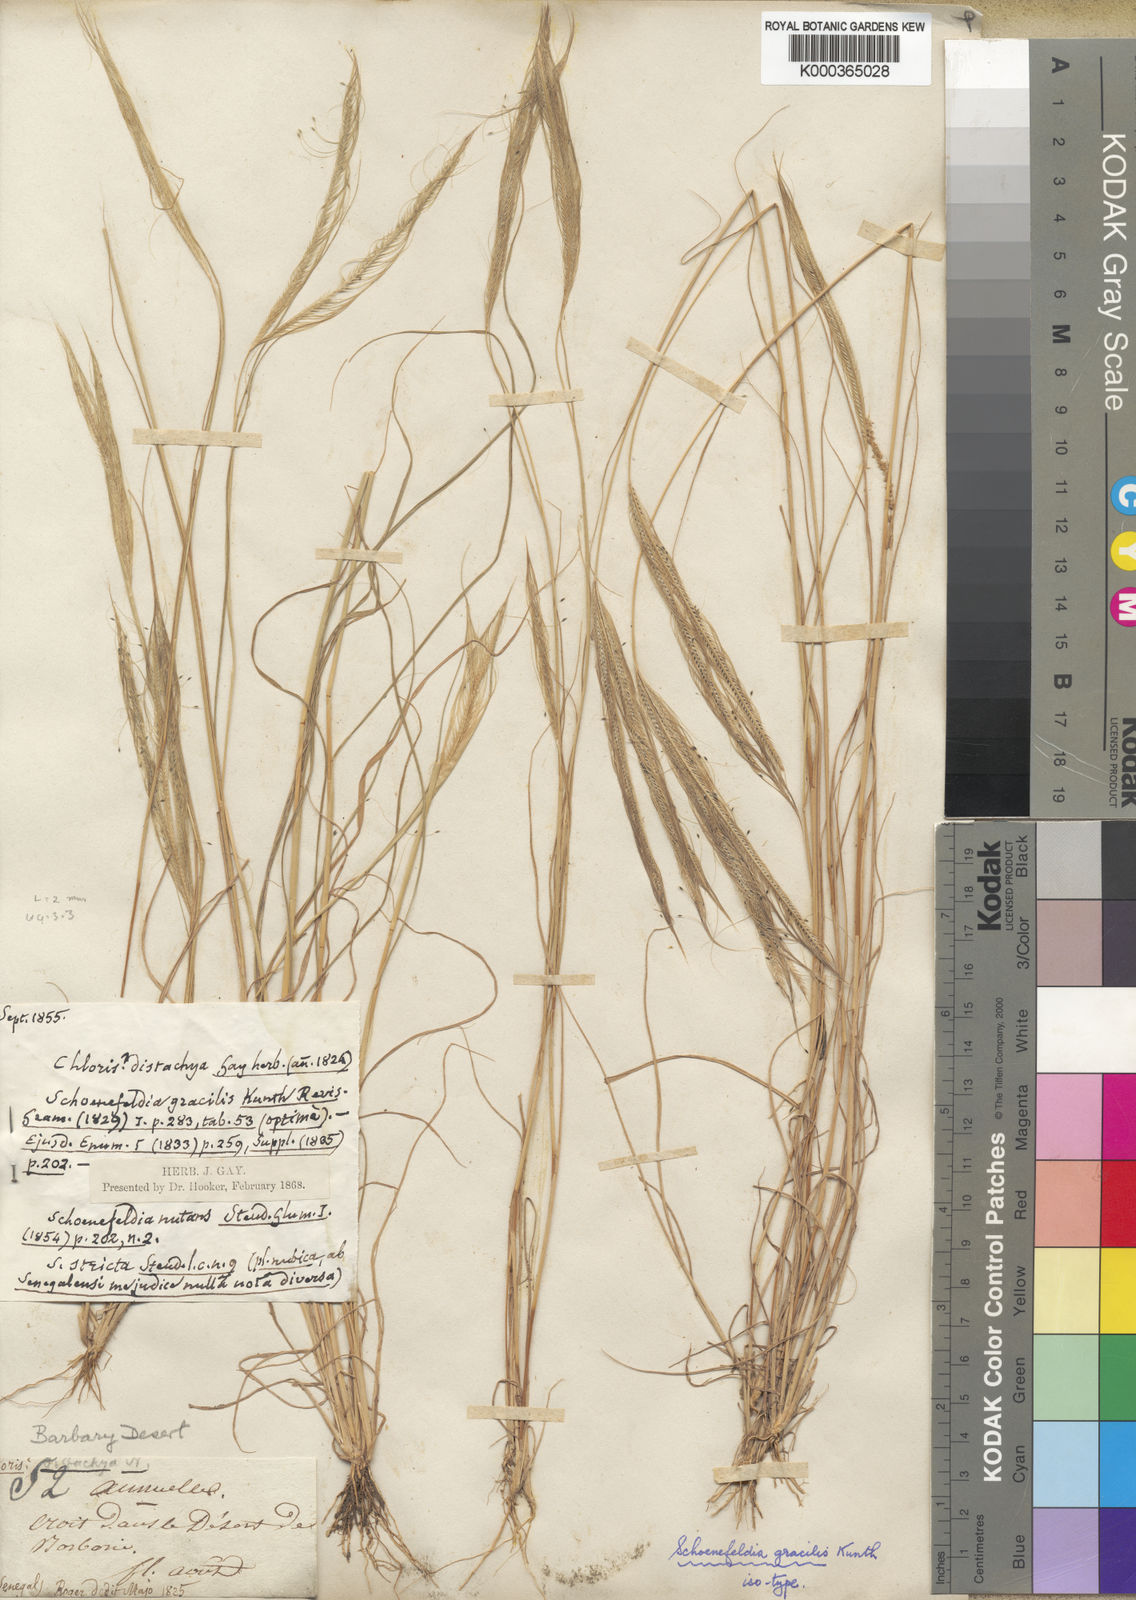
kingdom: Plantae
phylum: Tracheophyta
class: Liliopsida
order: Poales
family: Poaceae
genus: Schoenefeldia
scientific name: Schoenefeldia gracilis
